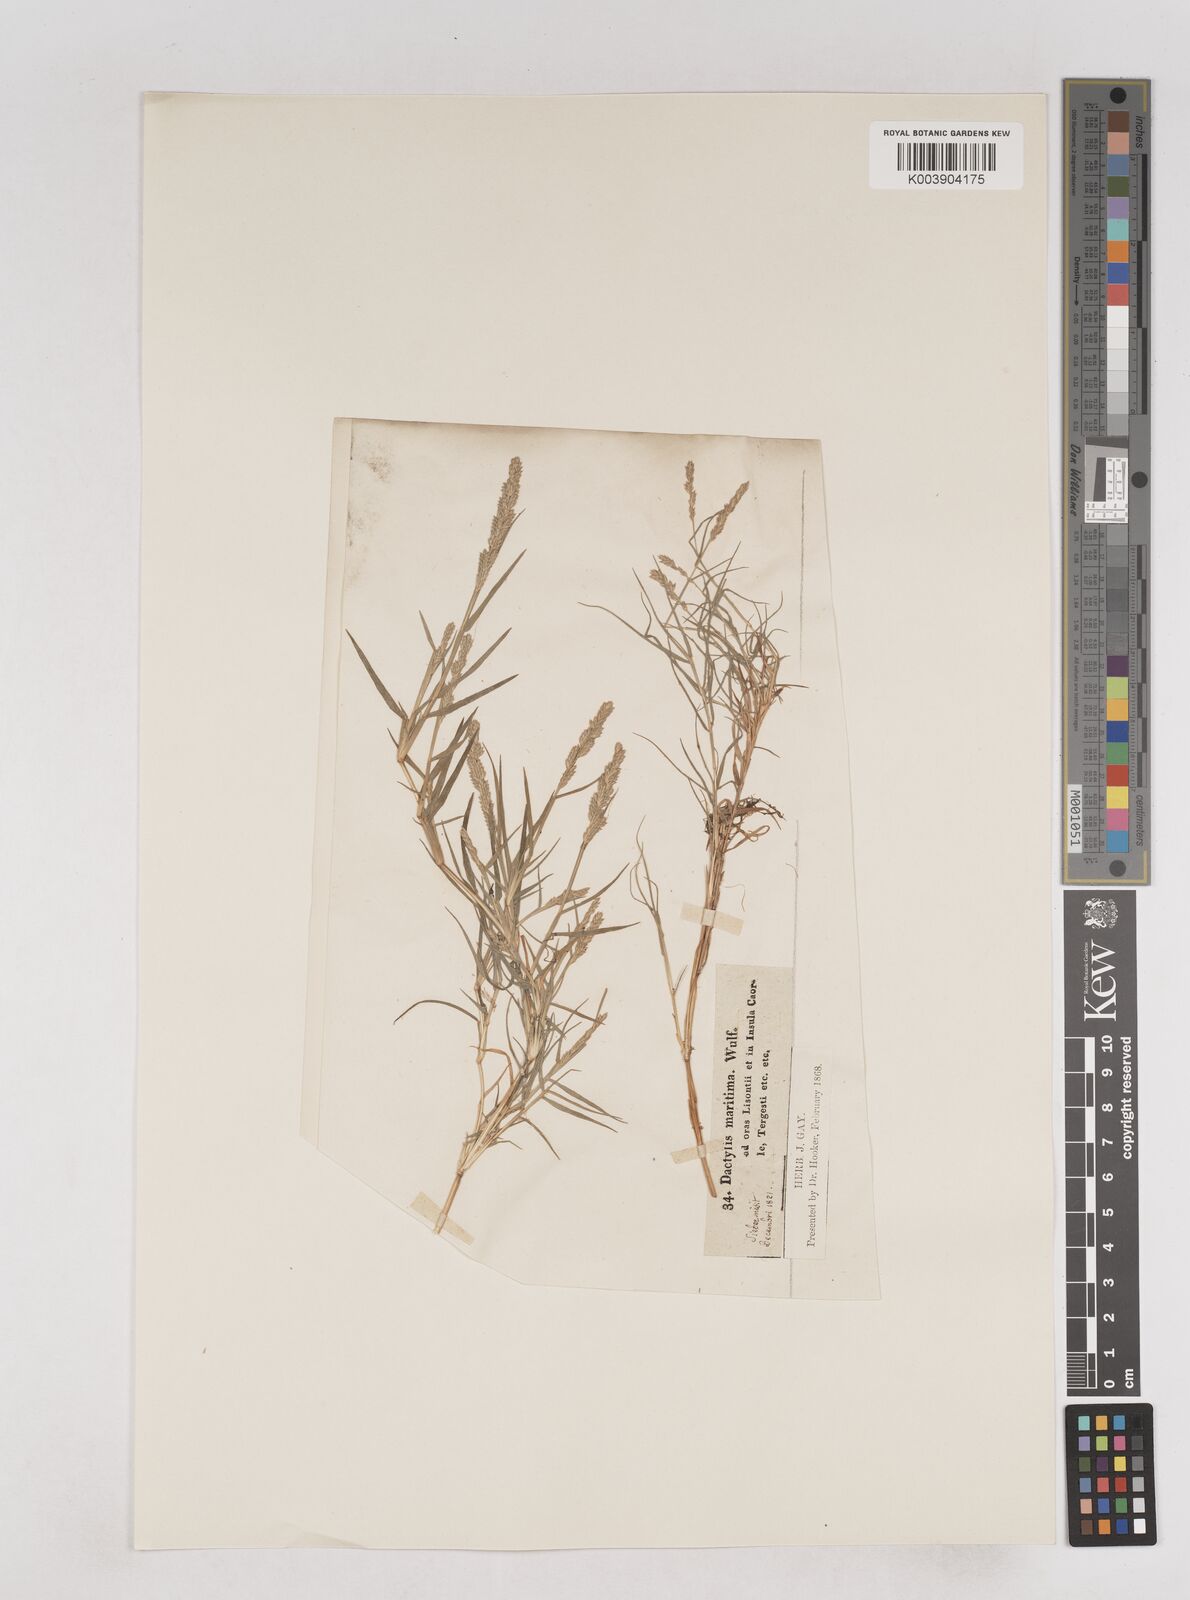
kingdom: Plantae
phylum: Tracheophyta
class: Liliopsida
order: Poales
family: Poaceae
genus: Aeluropus
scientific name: Aeluropus littoralis
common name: Indian walnut
